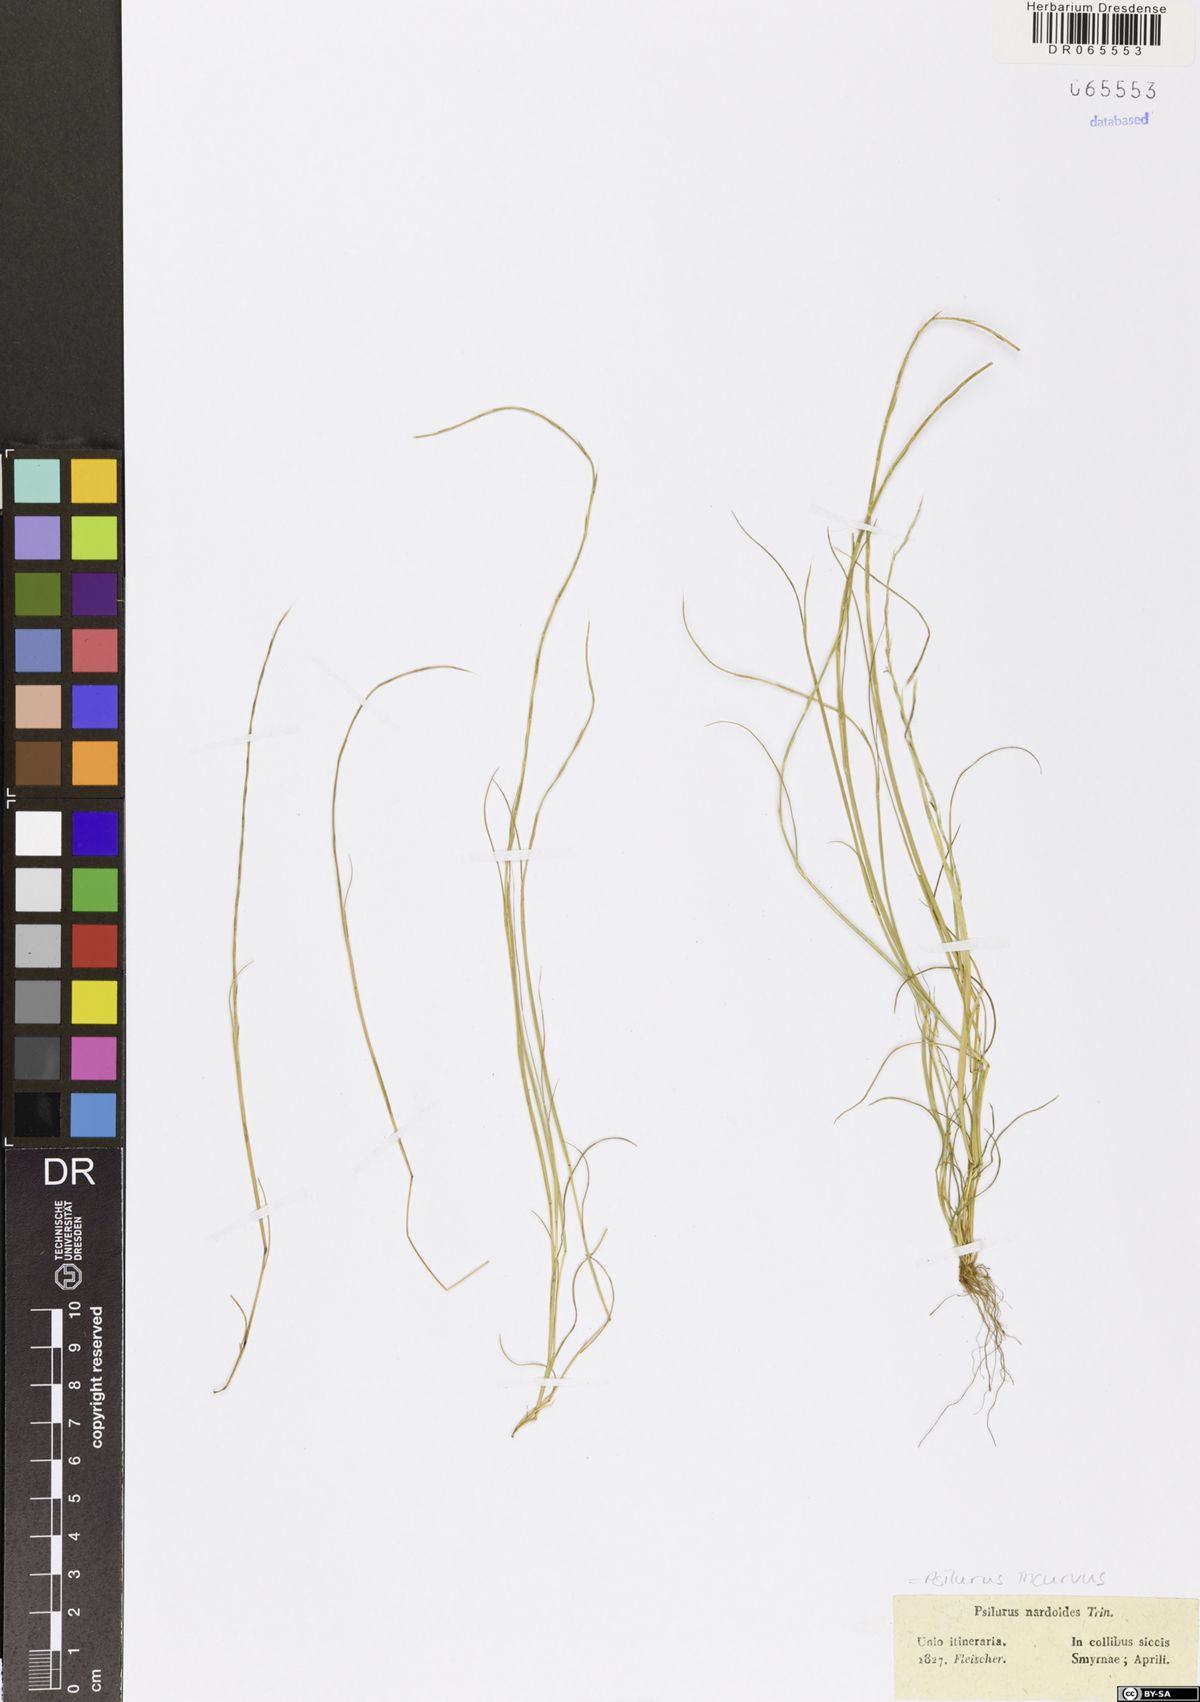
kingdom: Plantae
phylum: Tracheophyta
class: Liliopsida
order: Poales
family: Poaceae
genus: Festuca
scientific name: Festuca incurva
